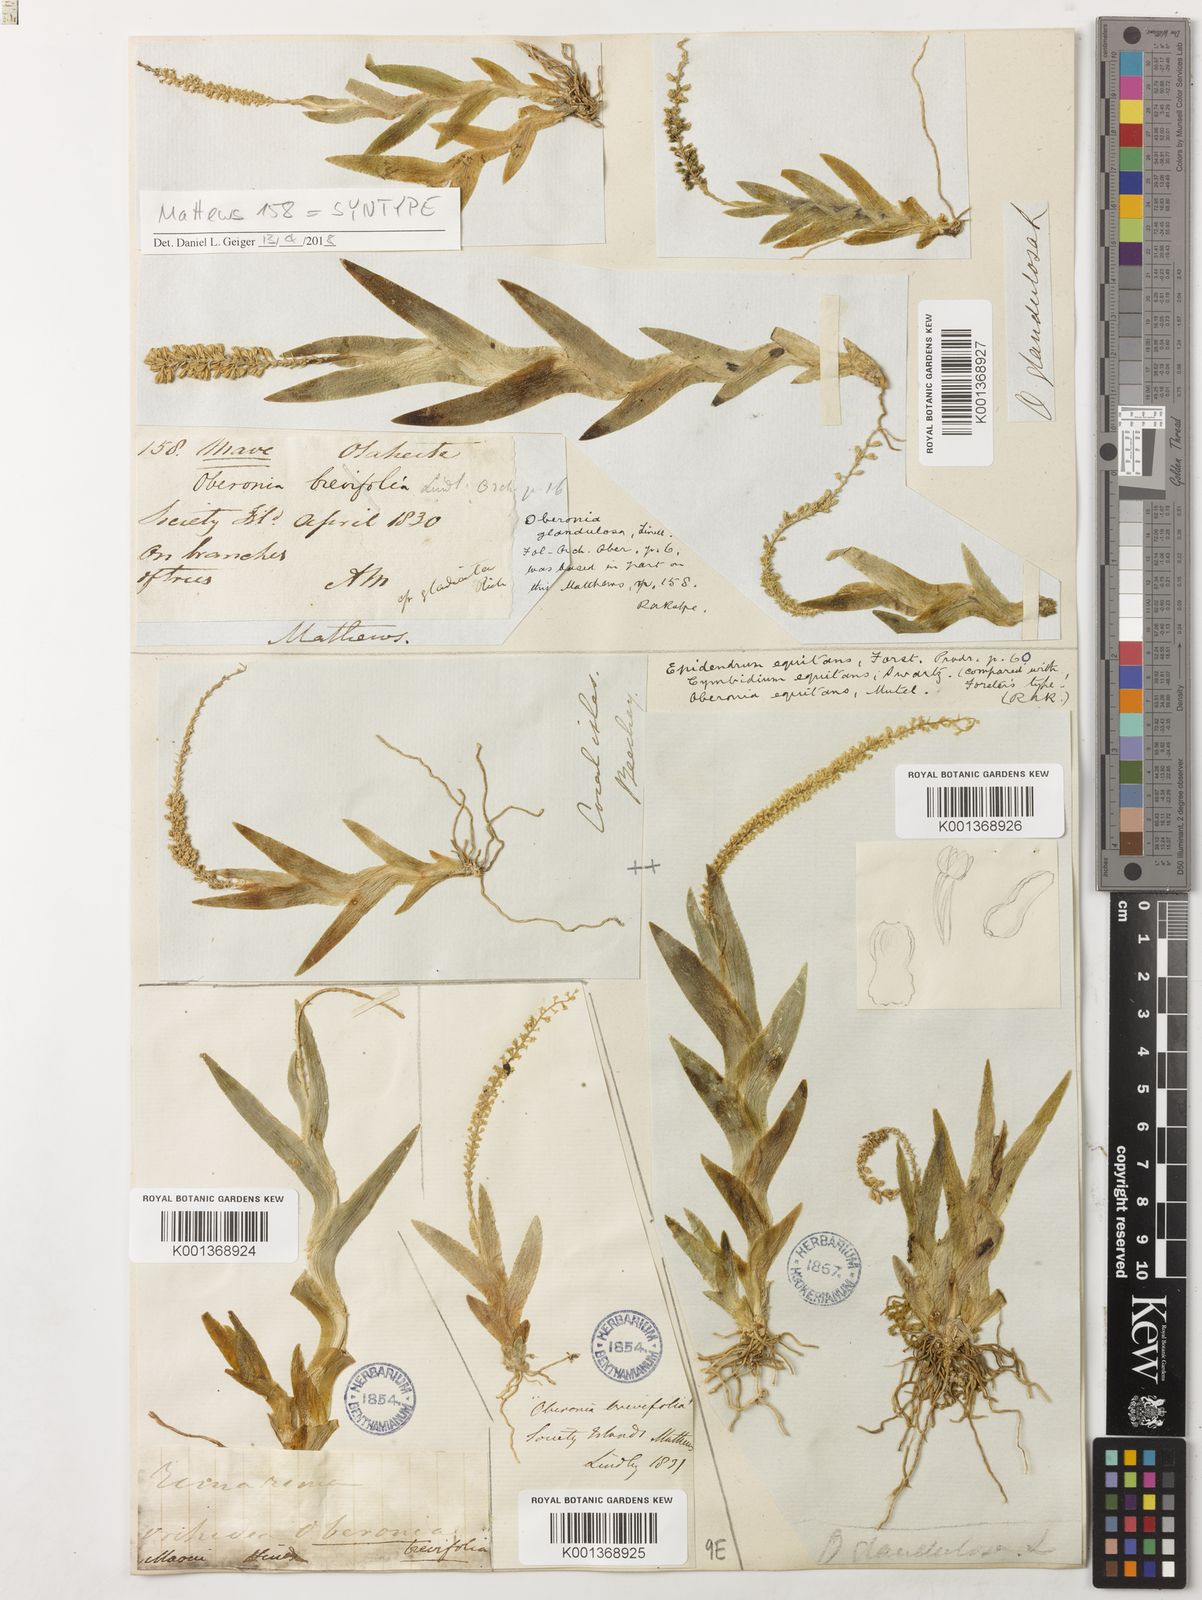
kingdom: Plantae
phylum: Tracheophyta
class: Liliopsida
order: Asparagales
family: Orchidaceae
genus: Oberonia
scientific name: Oberonia equitans
